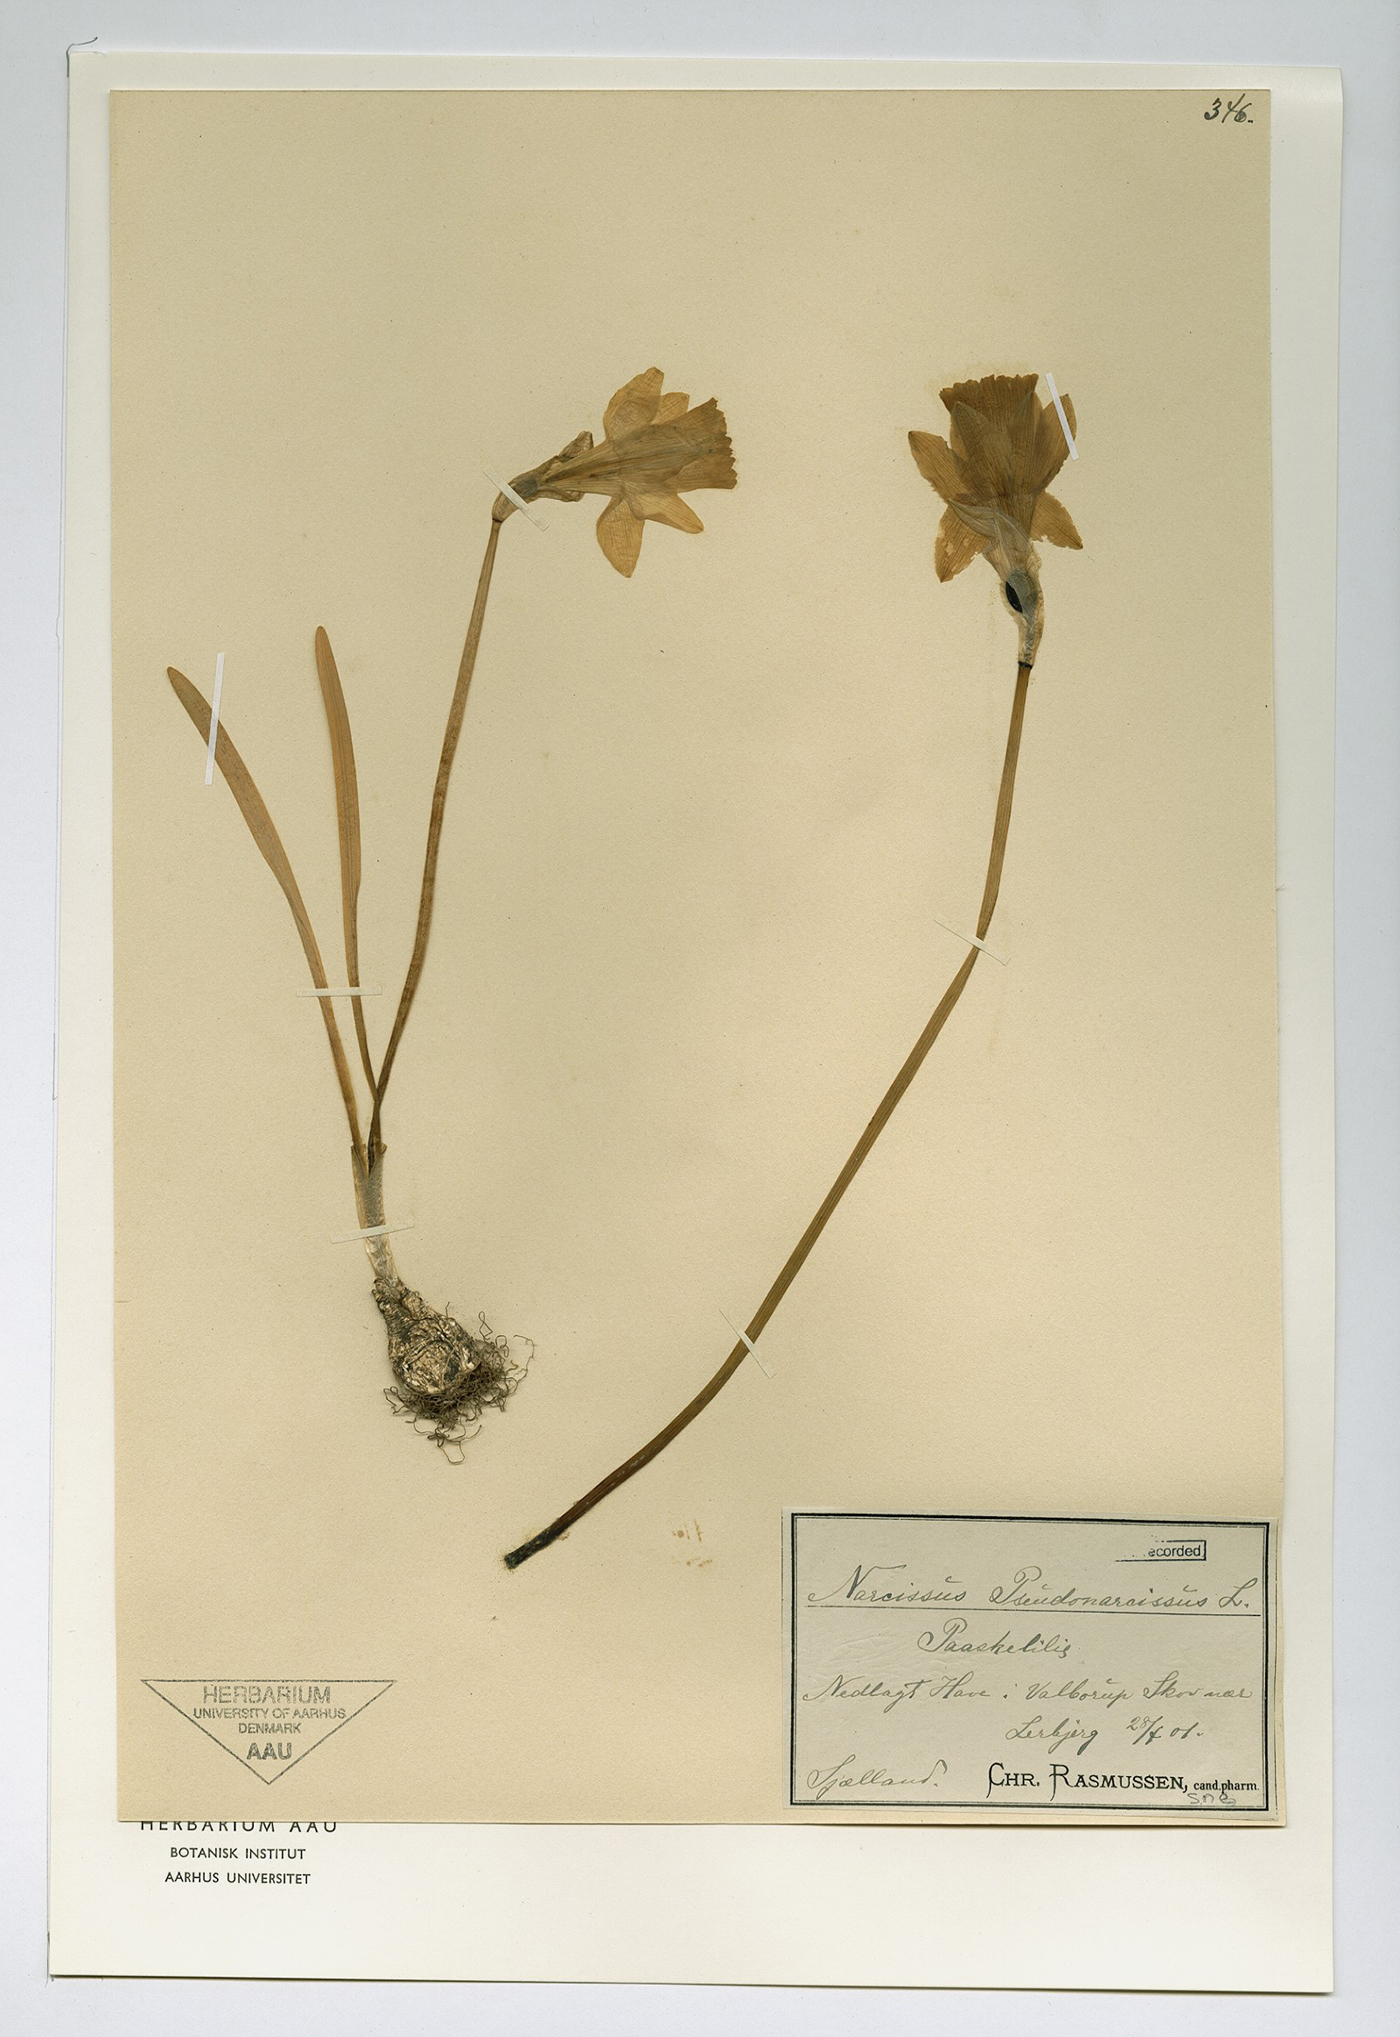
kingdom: Plantae
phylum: Tracheophyta
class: Liliopsida
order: Asparagales
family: Amaryllidaceae
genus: Narcissus
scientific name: Narcissus pseudonarcissus
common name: Daffodil
